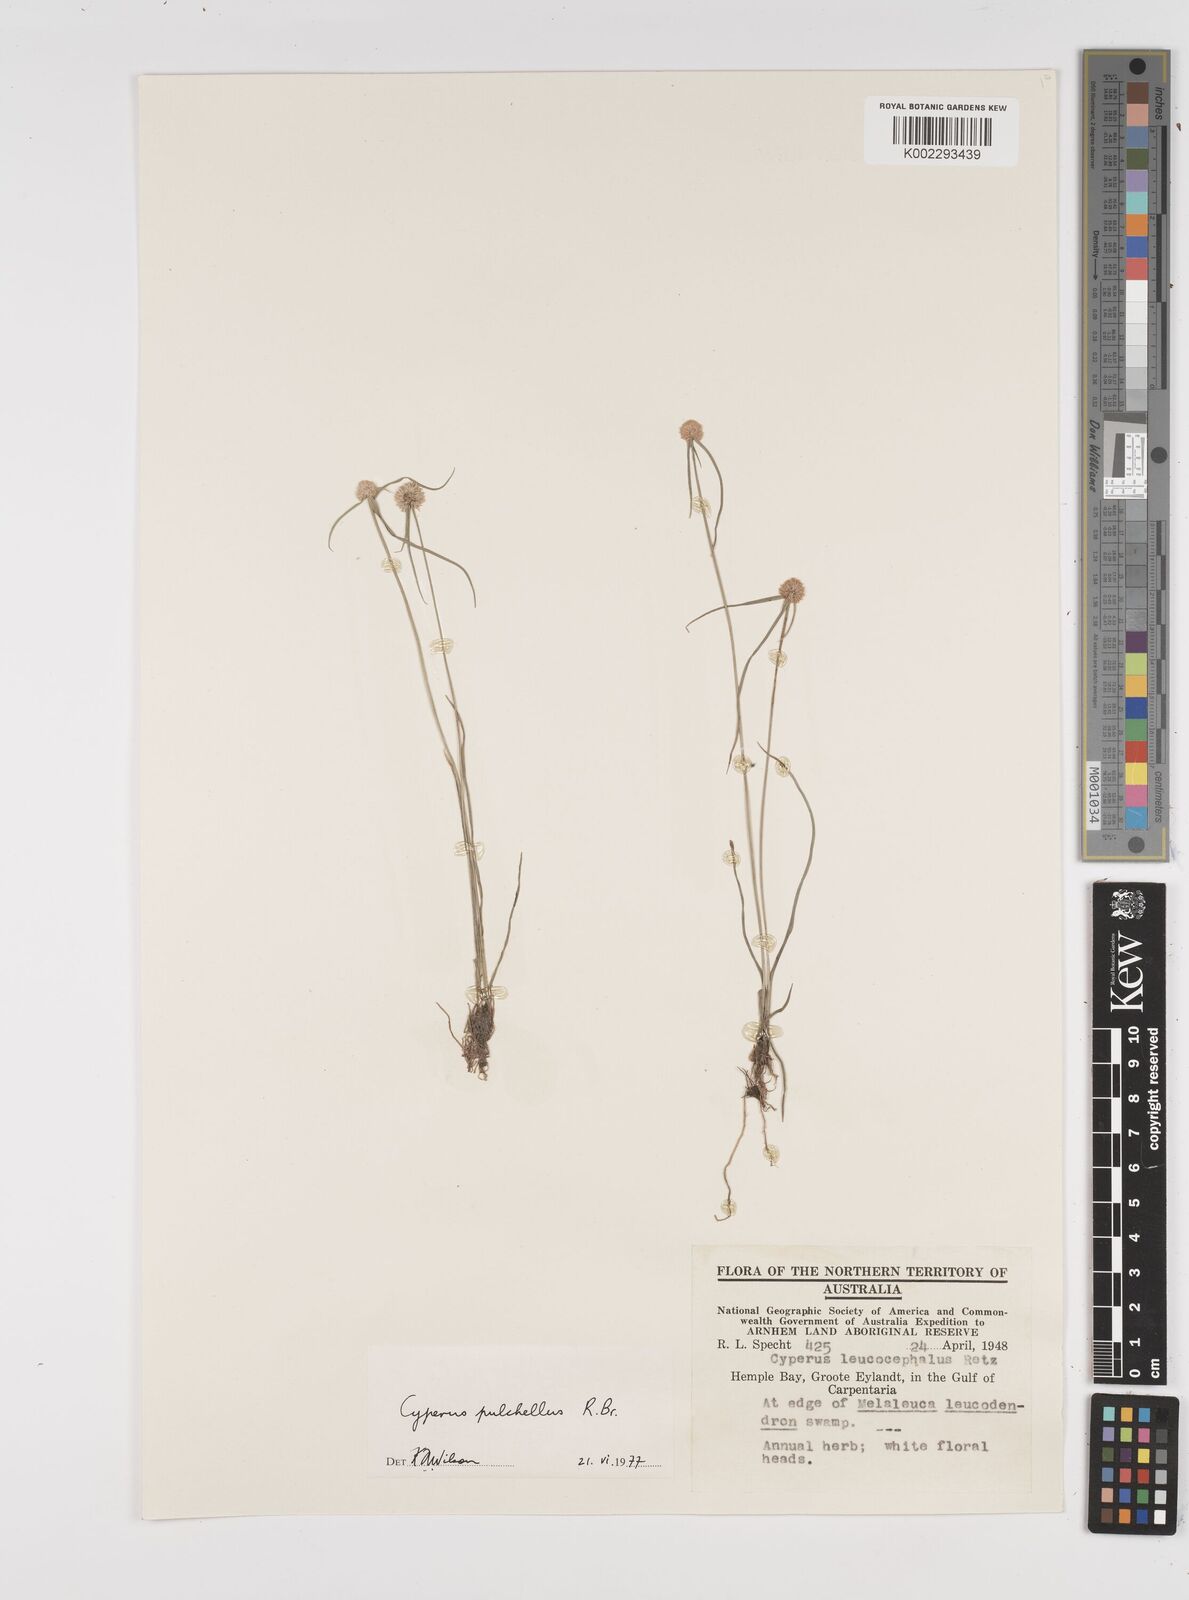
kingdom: Plantae
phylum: Tracheophyta
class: Liliopsida
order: Poales
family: Cyperaceae
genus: Cyperus
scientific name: Cyperus pulchellus
